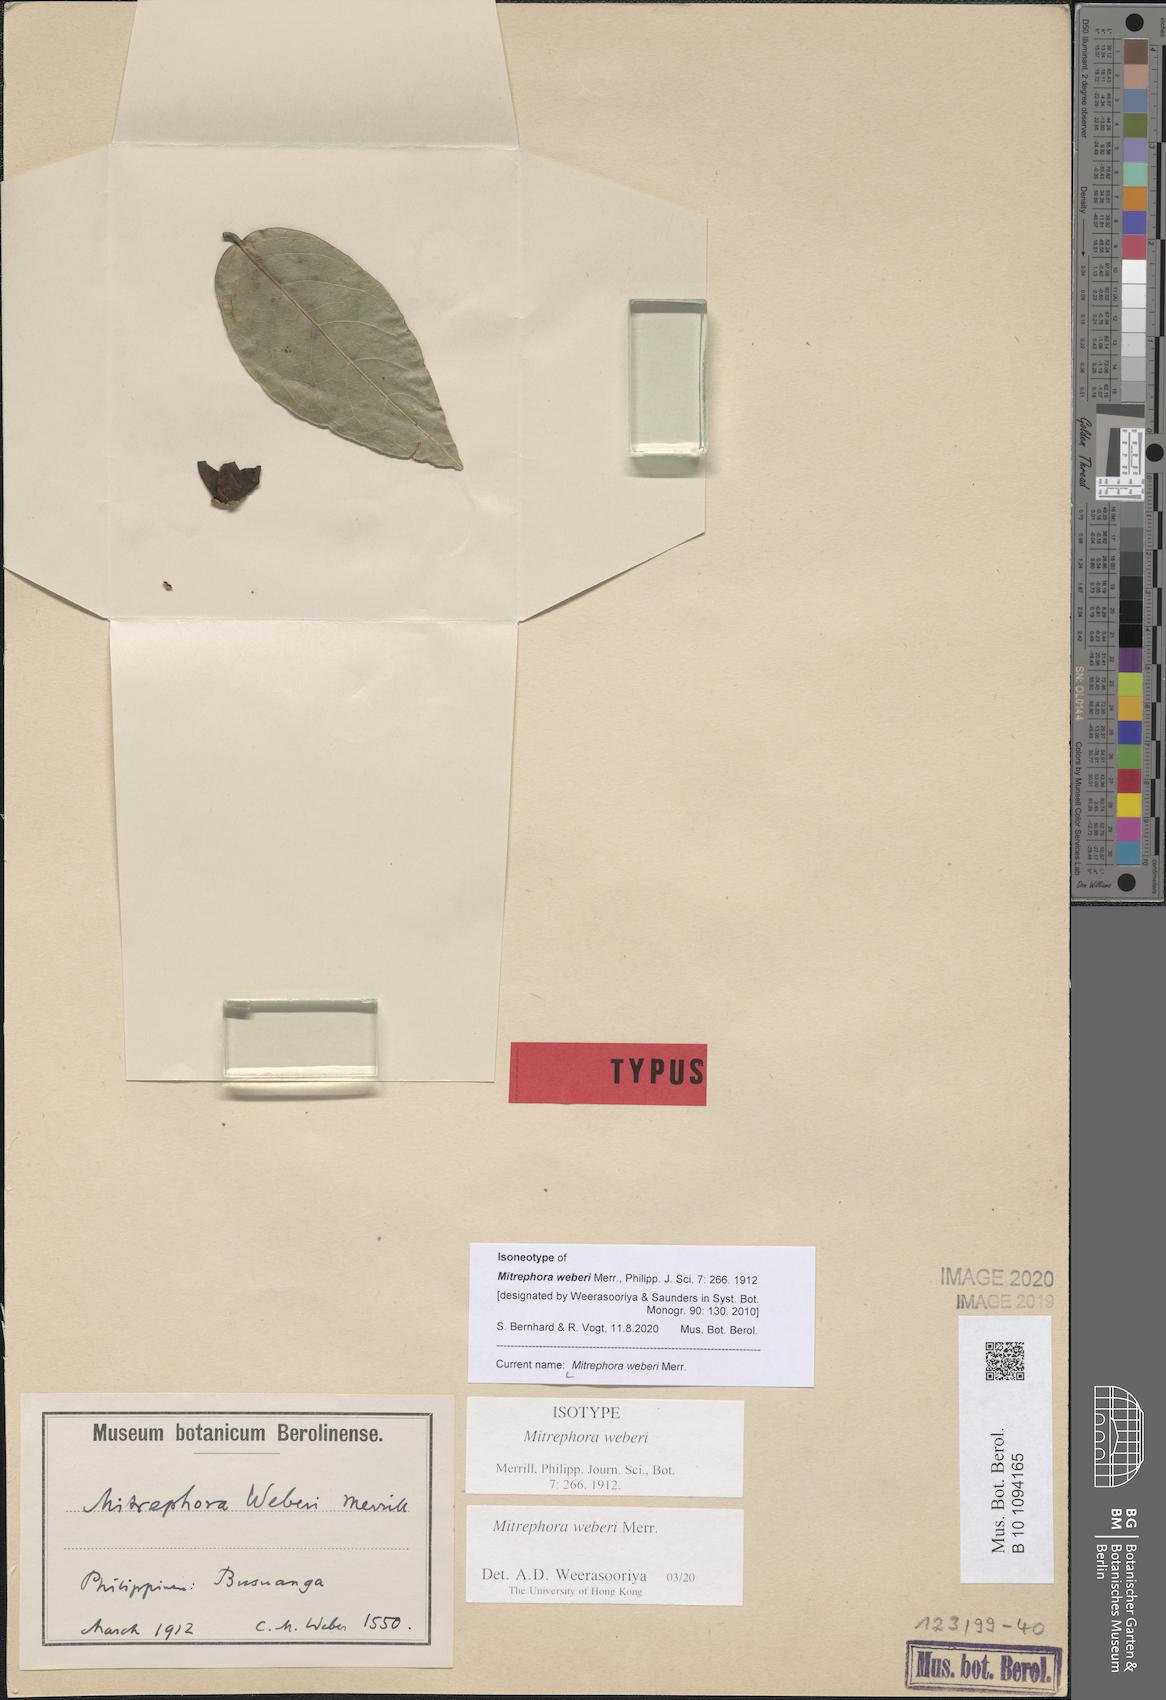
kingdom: Plantae
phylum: Tracheophyta
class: Magnoliopsida
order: Magnoliales
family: Annonaceae
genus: Mitrephora
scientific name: Mitrephora weberi
